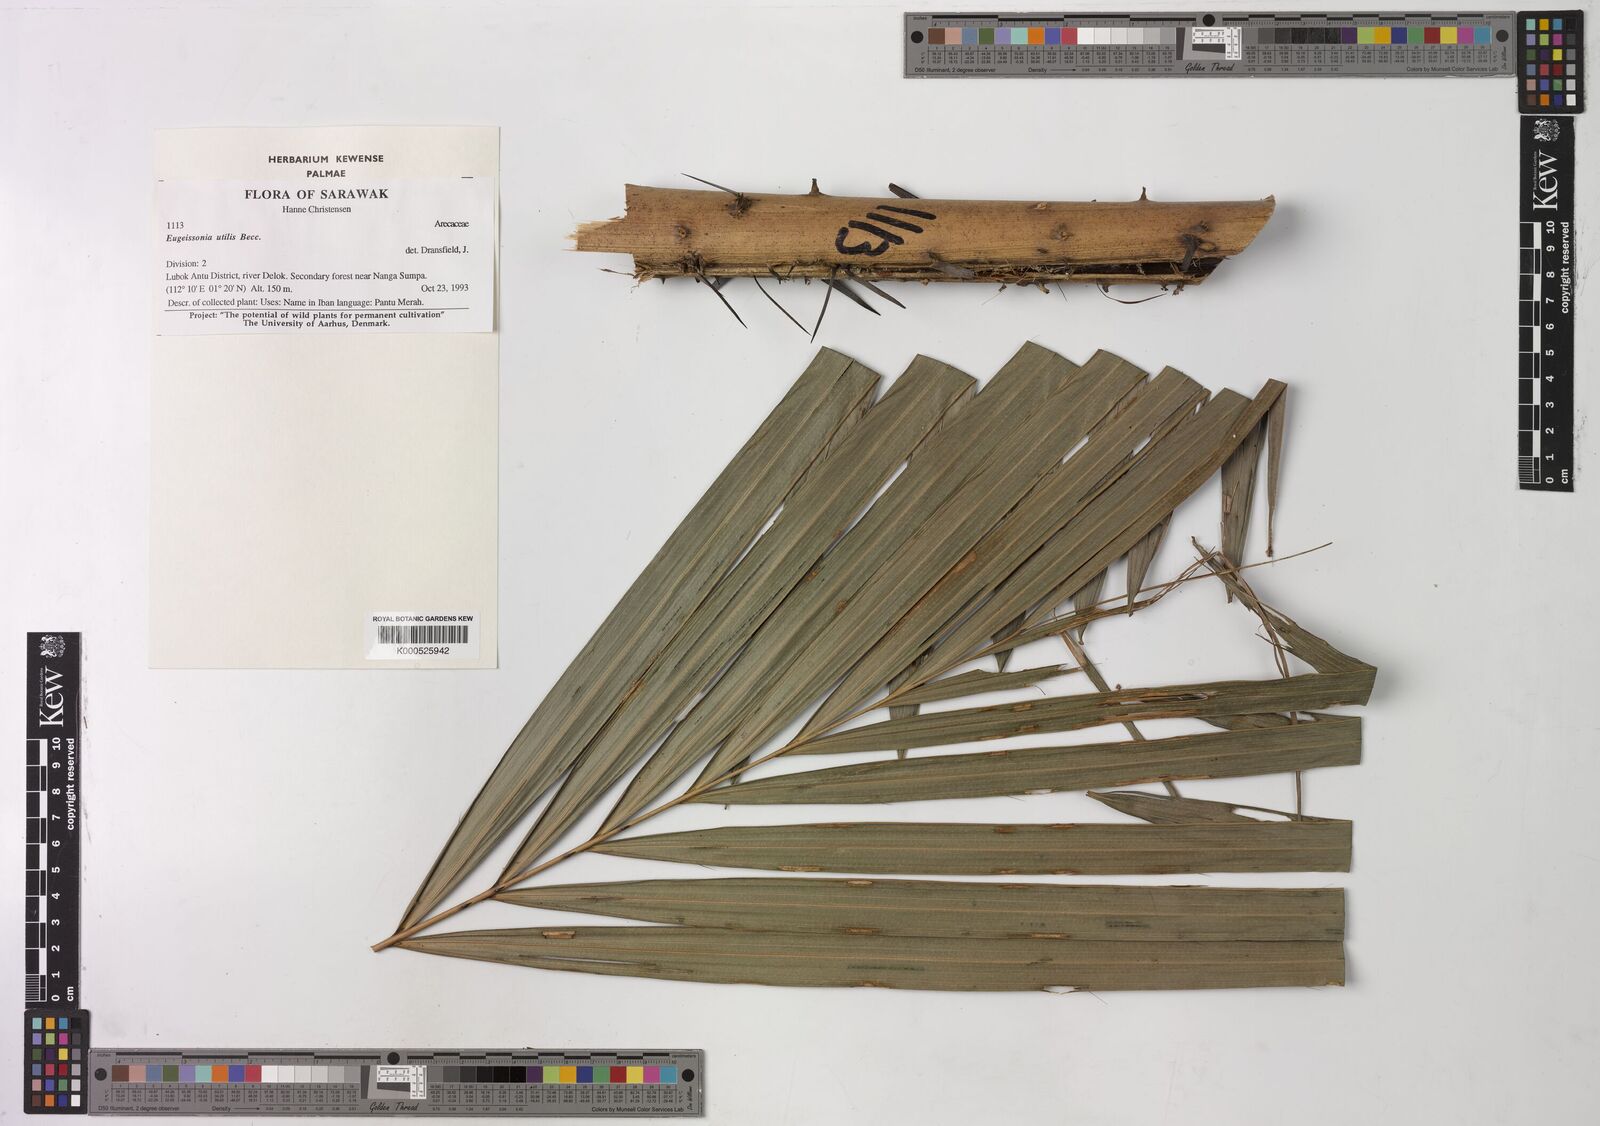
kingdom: Plantae
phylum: Tracheophyta
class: Liliopsida
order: Arecales
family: Arecaceae
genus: Eugeissona
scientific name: Eugeissona utilis
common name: Wild bornean sago palm
